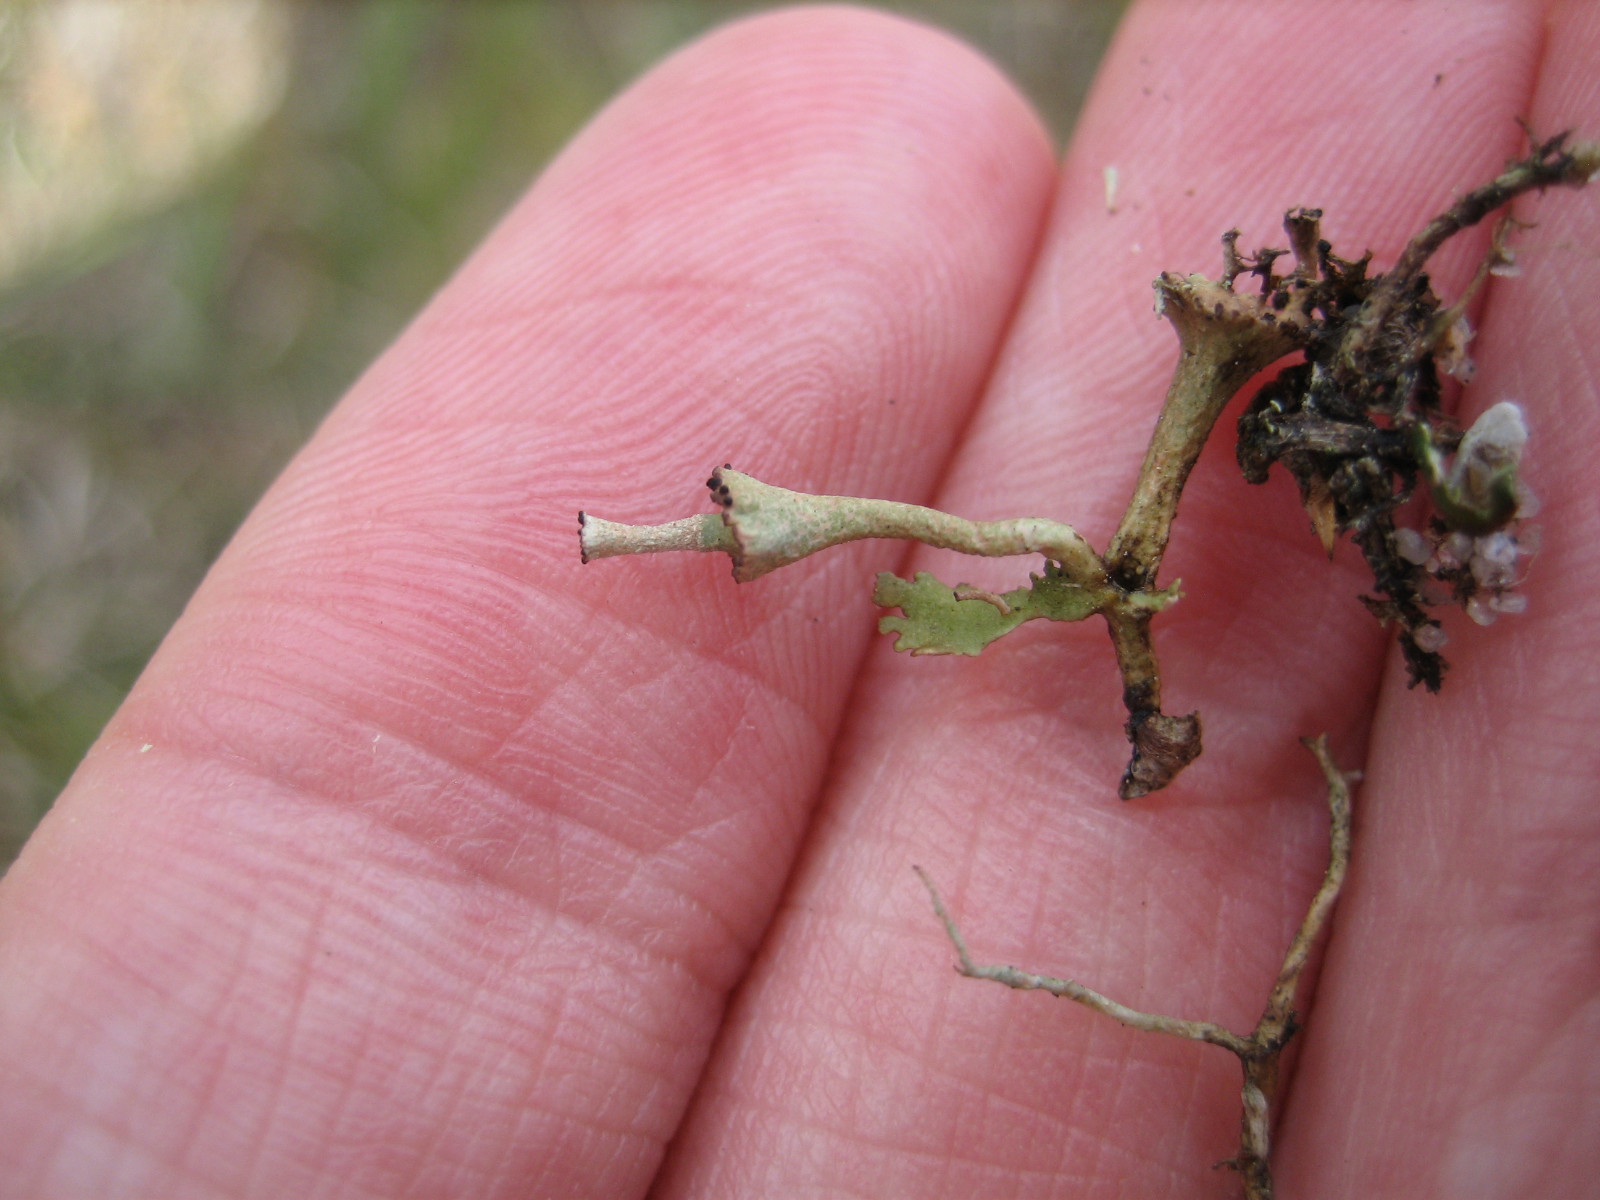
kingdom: Fungi
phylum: Ascomycota
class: Lecanoromycetes
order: Lecanorales
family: Cladoniaceae
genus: Cladonia
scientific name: Cladonia cervicornis
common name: gevir-bægerlav
